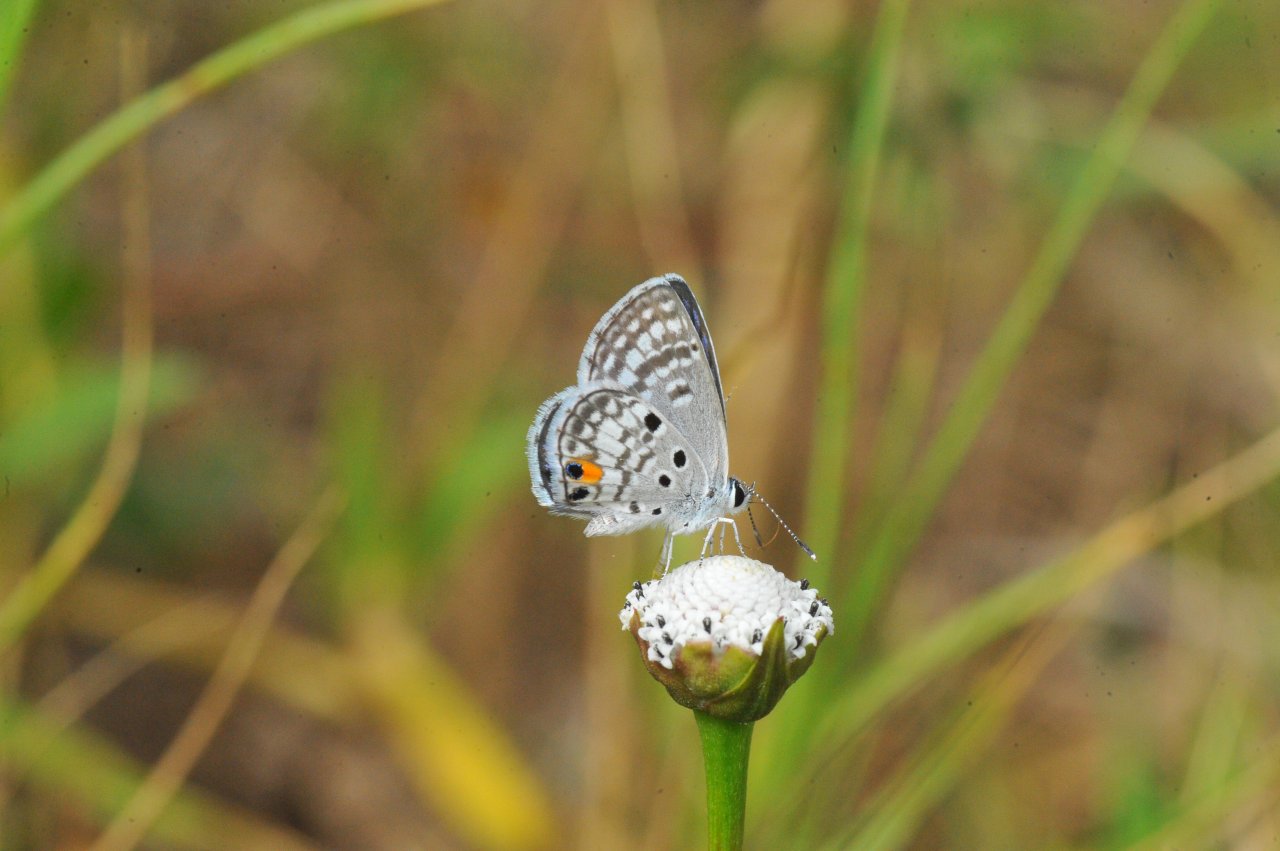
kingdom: Animalia
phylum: Arthropoda
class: Insecta
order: Lepidoptera
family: Lycaenidae
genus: Cyclargus
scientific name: Cyclargus ammon
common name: Nickerbean Blue
